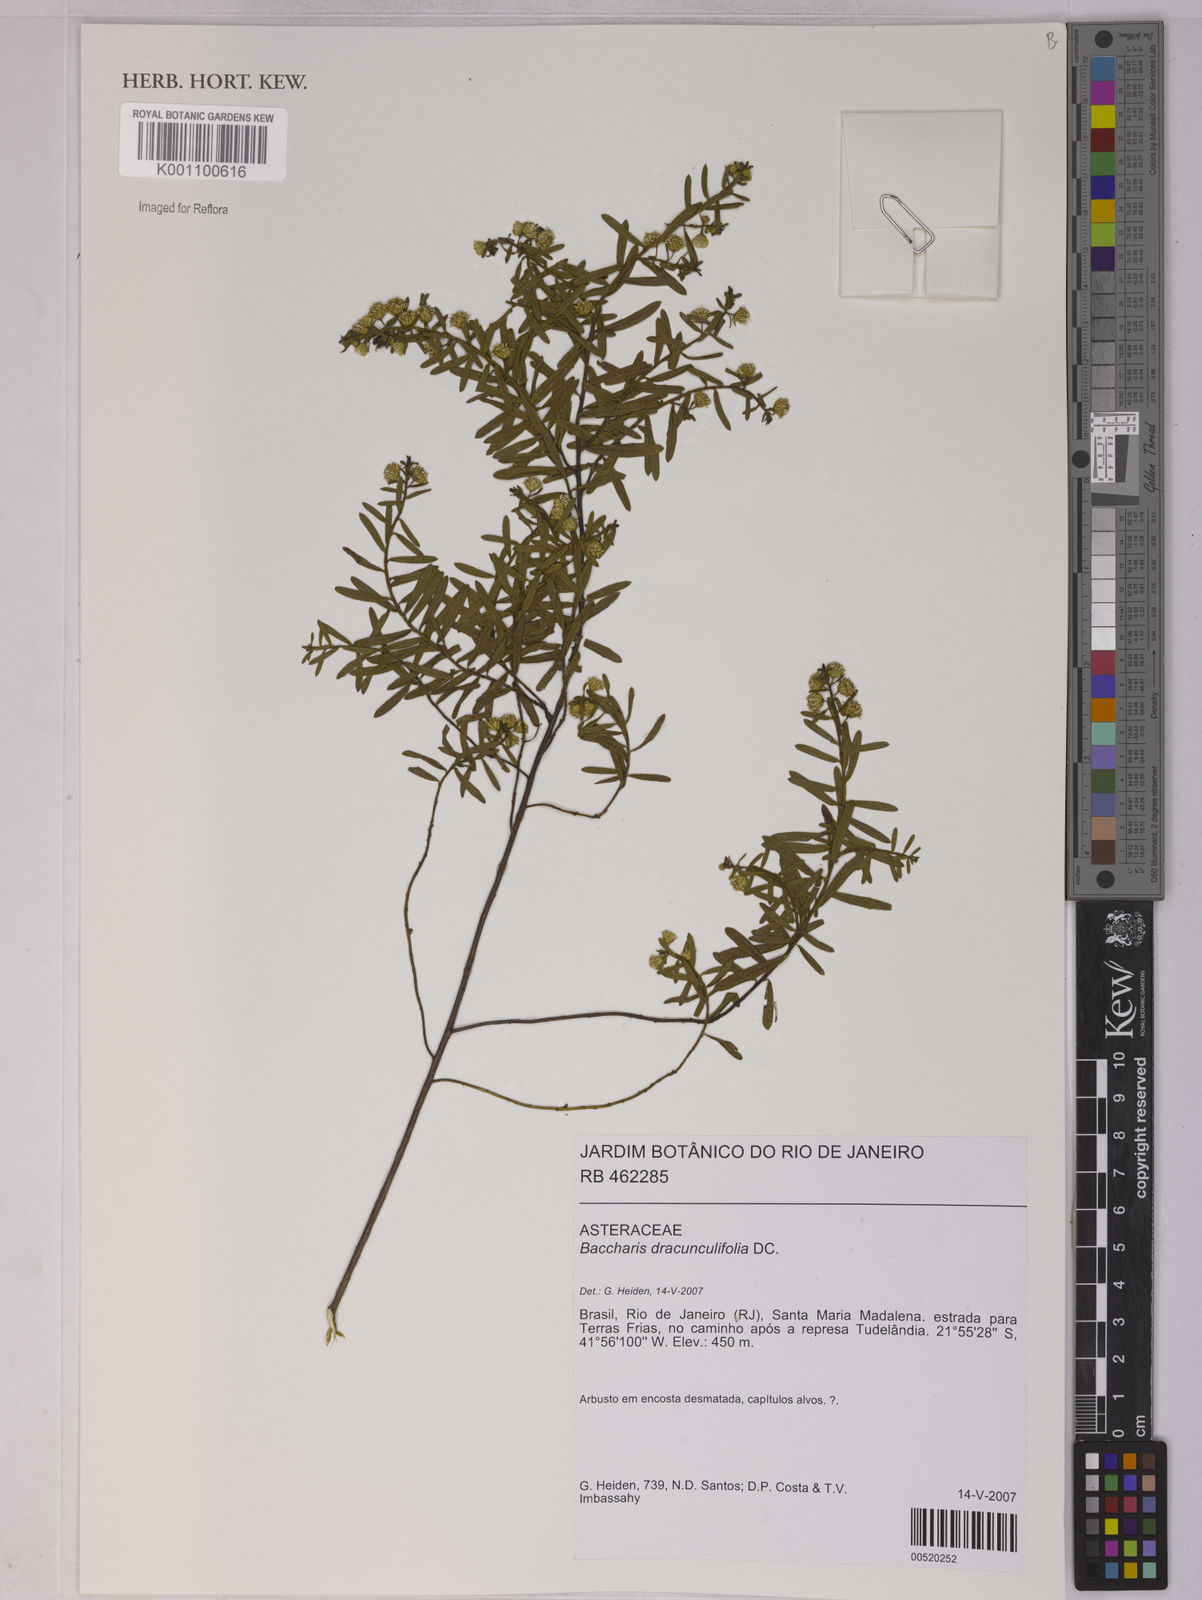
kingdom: Plantae
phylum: Tracheophyta
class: Magnoliopsida
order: Asterales
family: Asteraceae
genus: Baccharis
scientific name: Baccharis dracunculifolia
